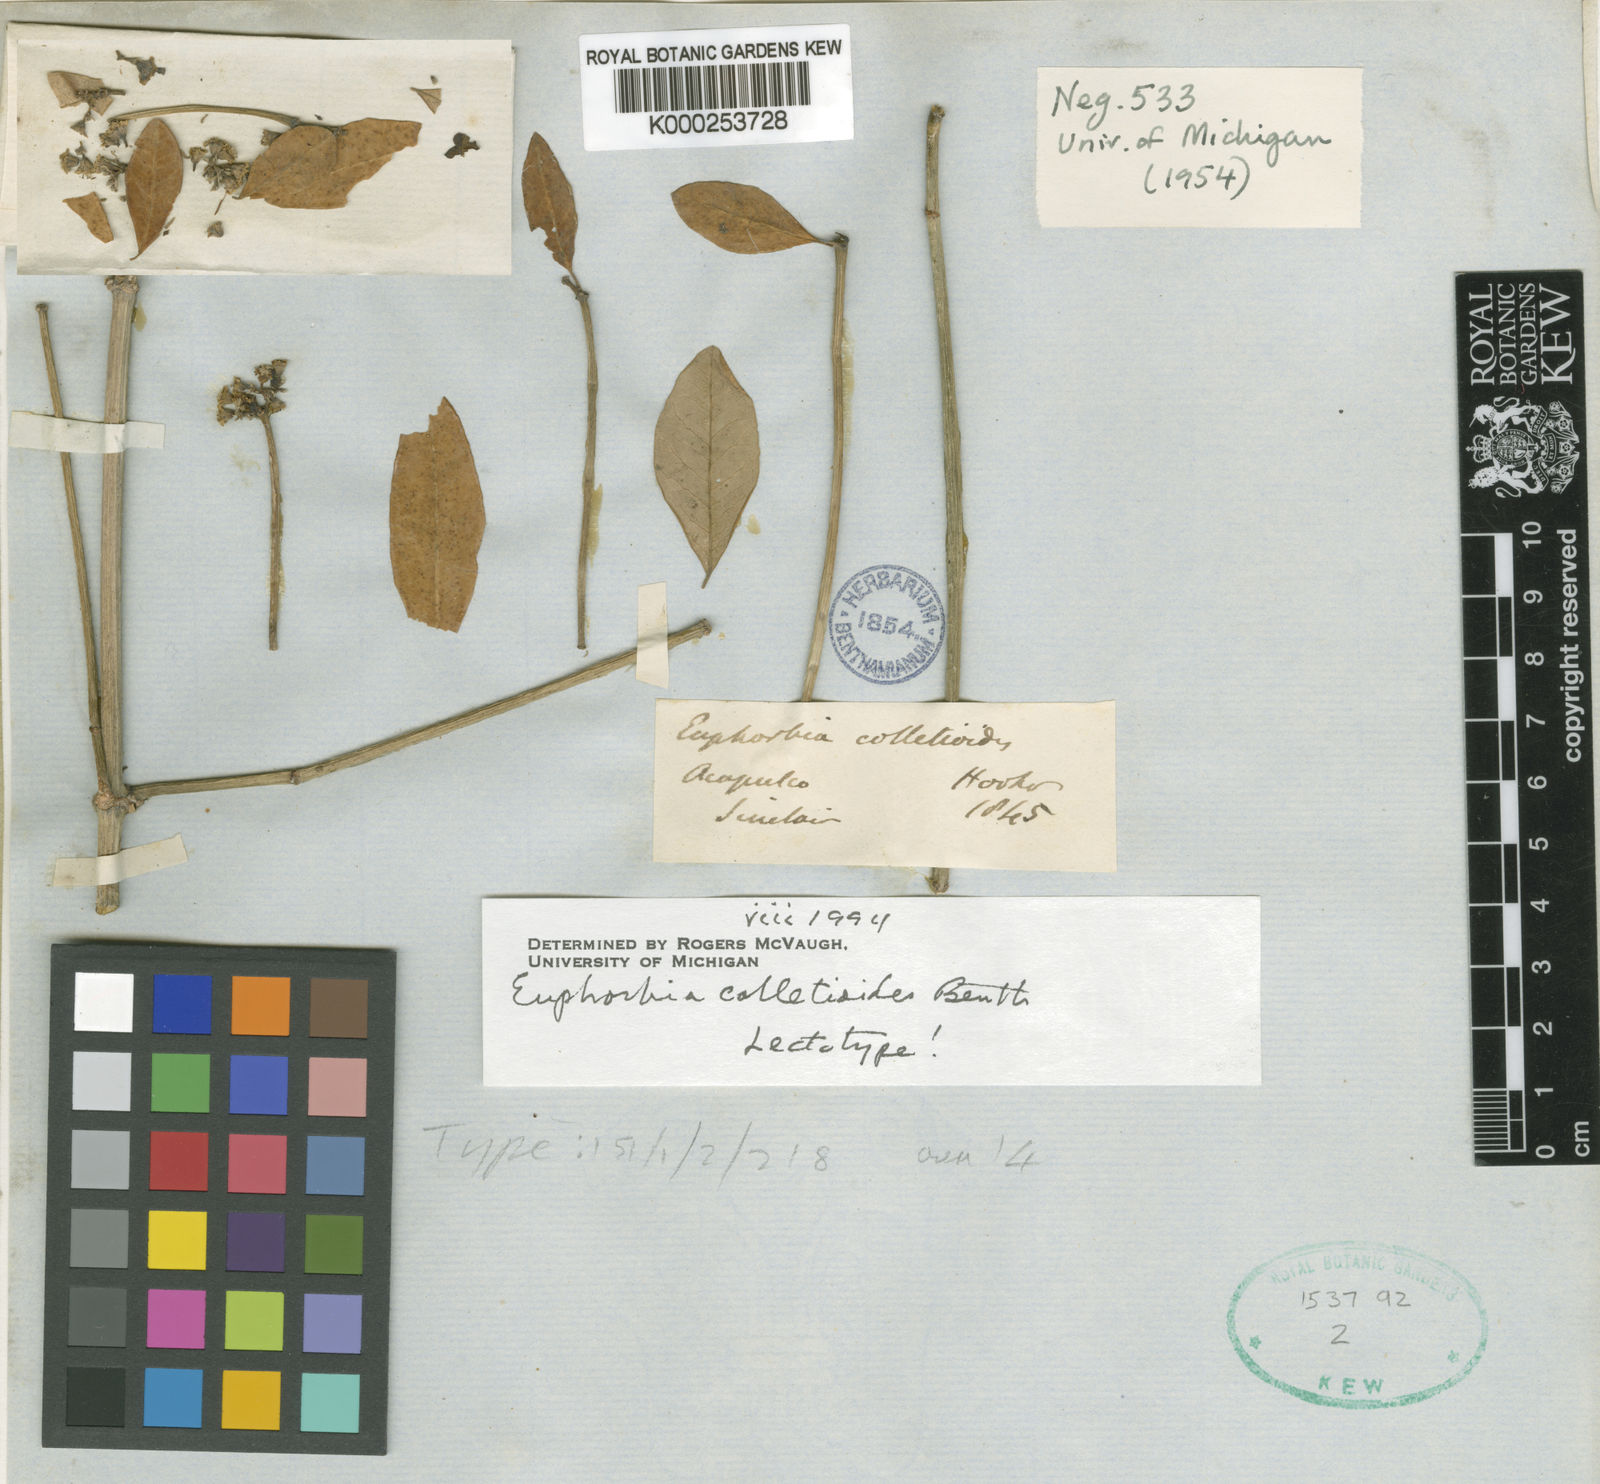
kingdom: Plantae
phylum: Tracheophyta
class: Magnoliopsida
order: Malpighiales
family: Euphorbiaceae
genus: Euphorbia
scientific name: Euphorbia colletioides
